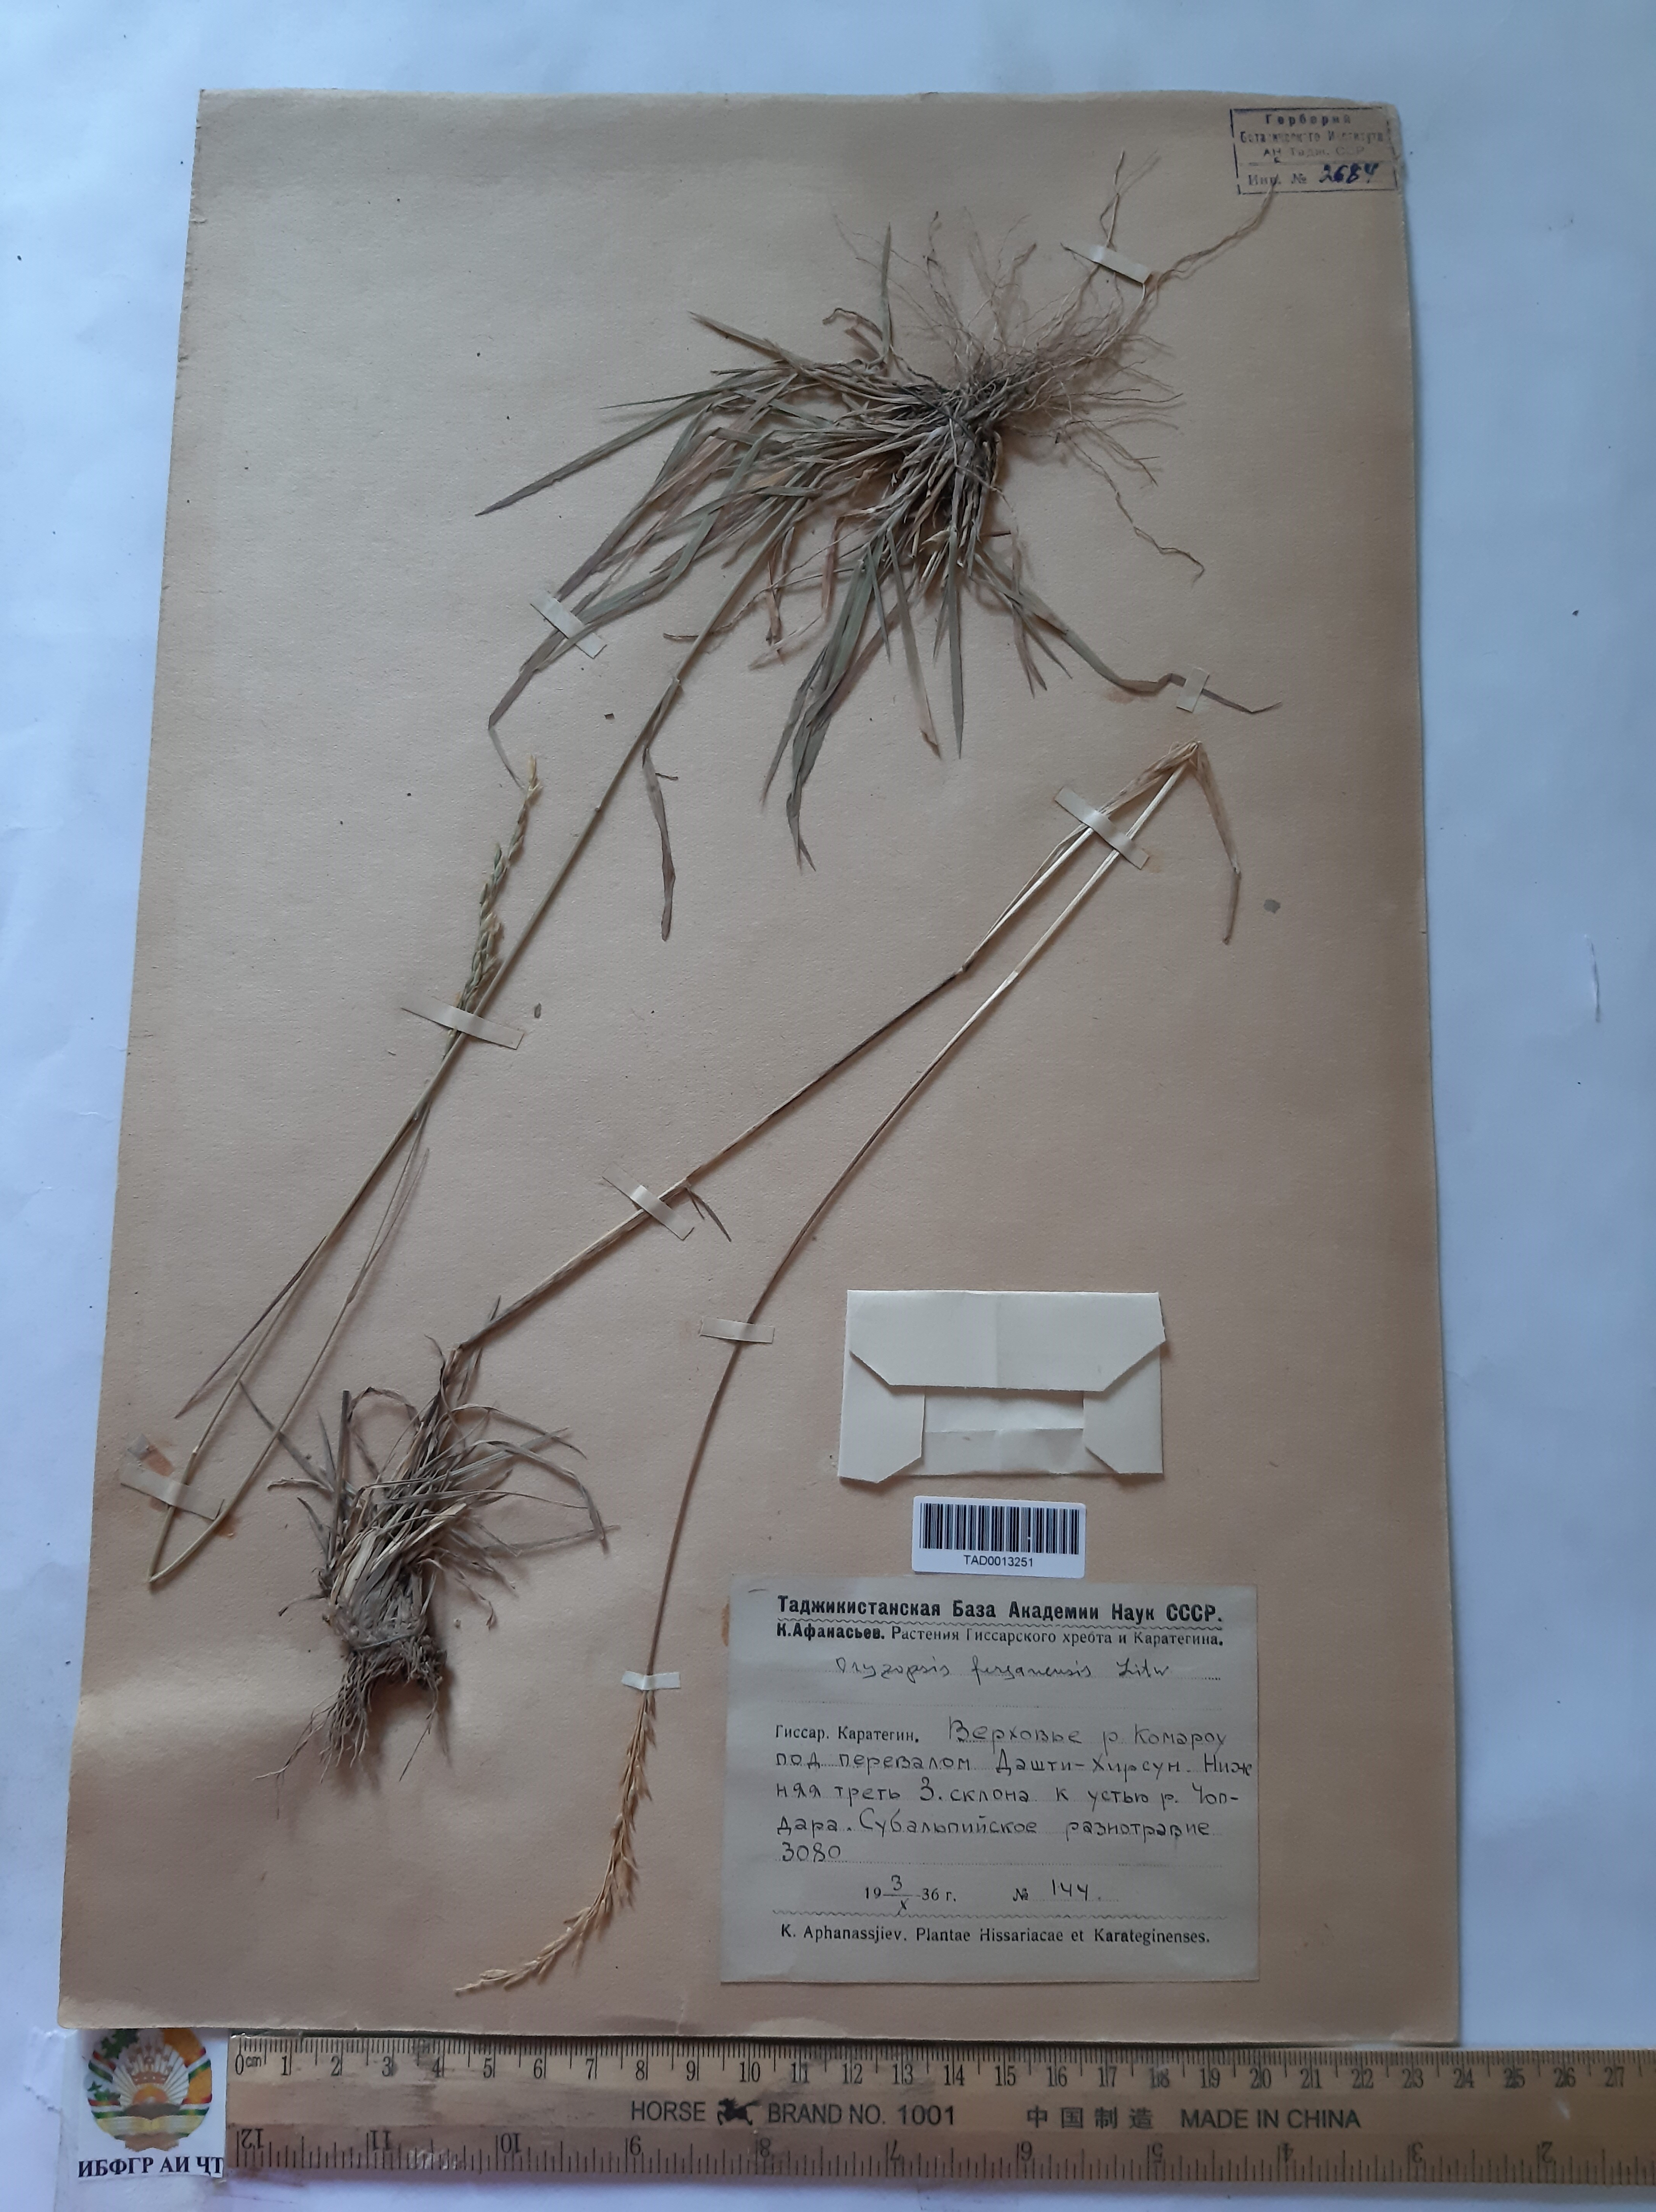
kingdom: Plantae
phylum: Tracheophyta
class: Liliopsida
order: Poales
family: Poaceae
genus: Piptatherum
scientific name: Piptatherum ferganense
